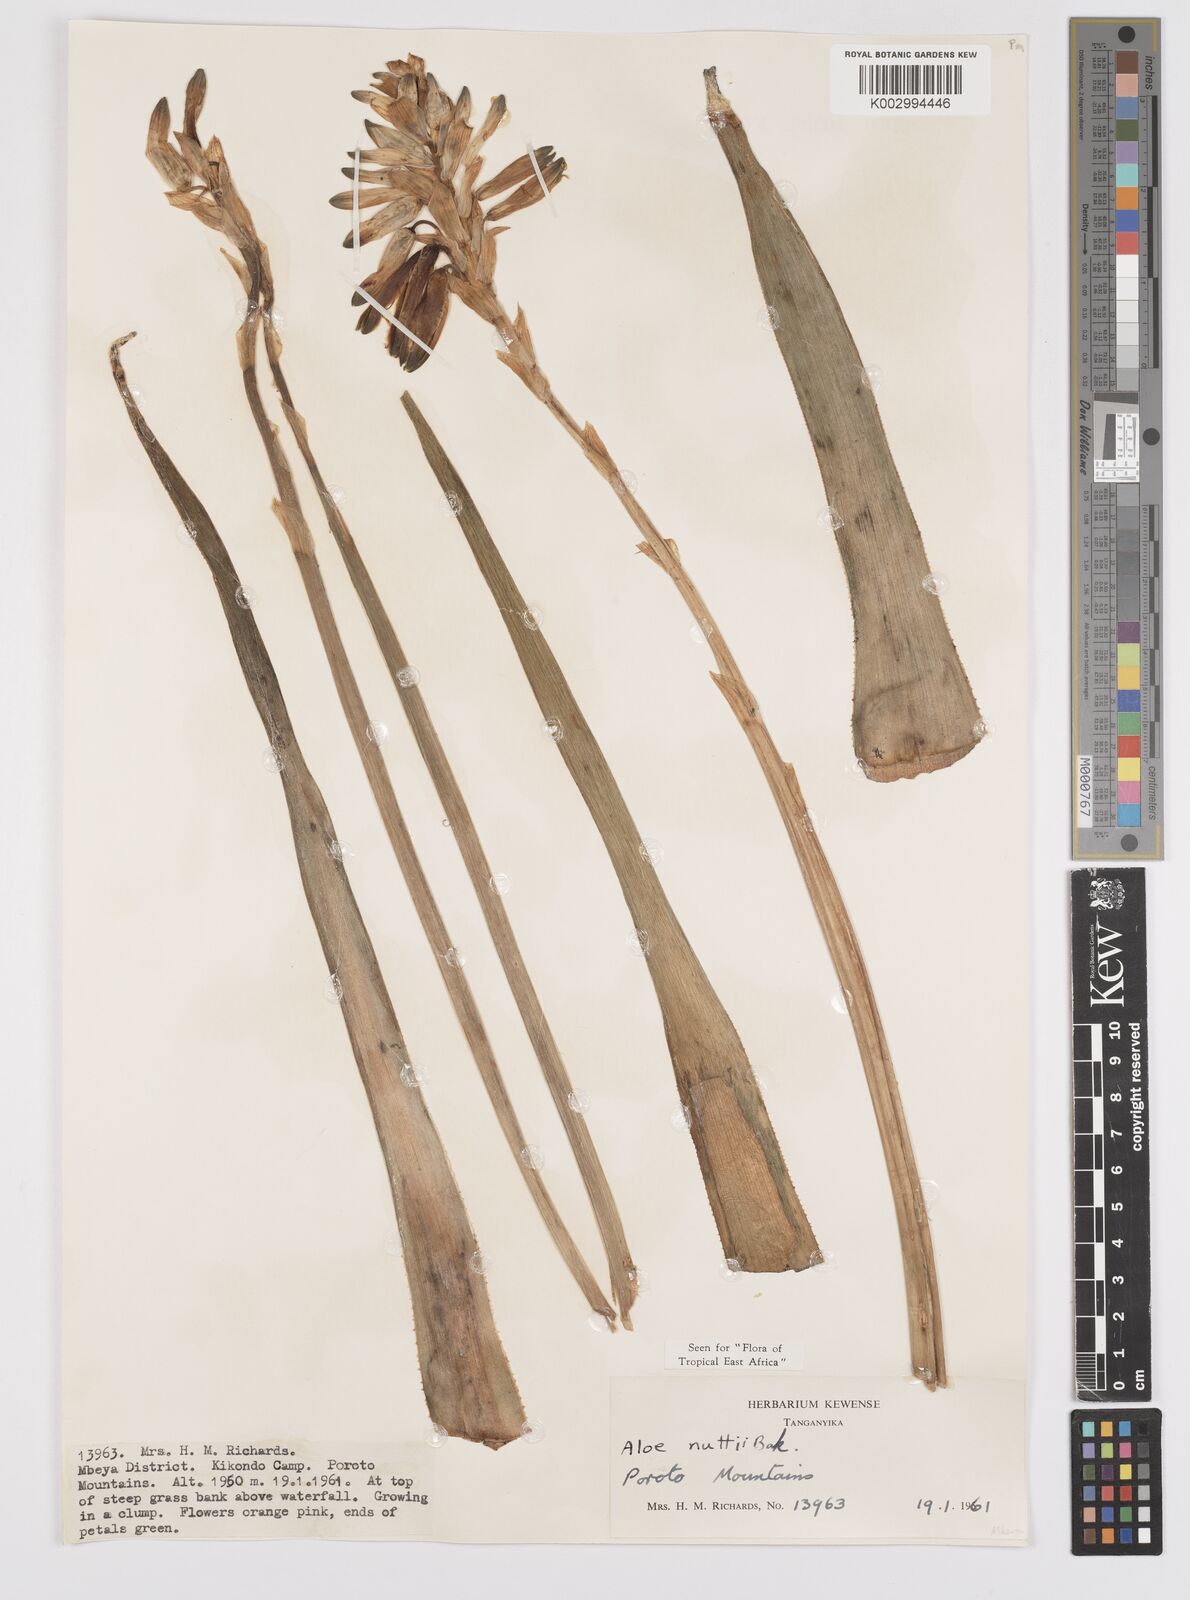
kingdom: Plantae
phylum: Tracheophyta
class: Liliopsida
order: Asparagales
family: Asphodelaceae
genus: Aloe
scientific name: Aloe nuttii
